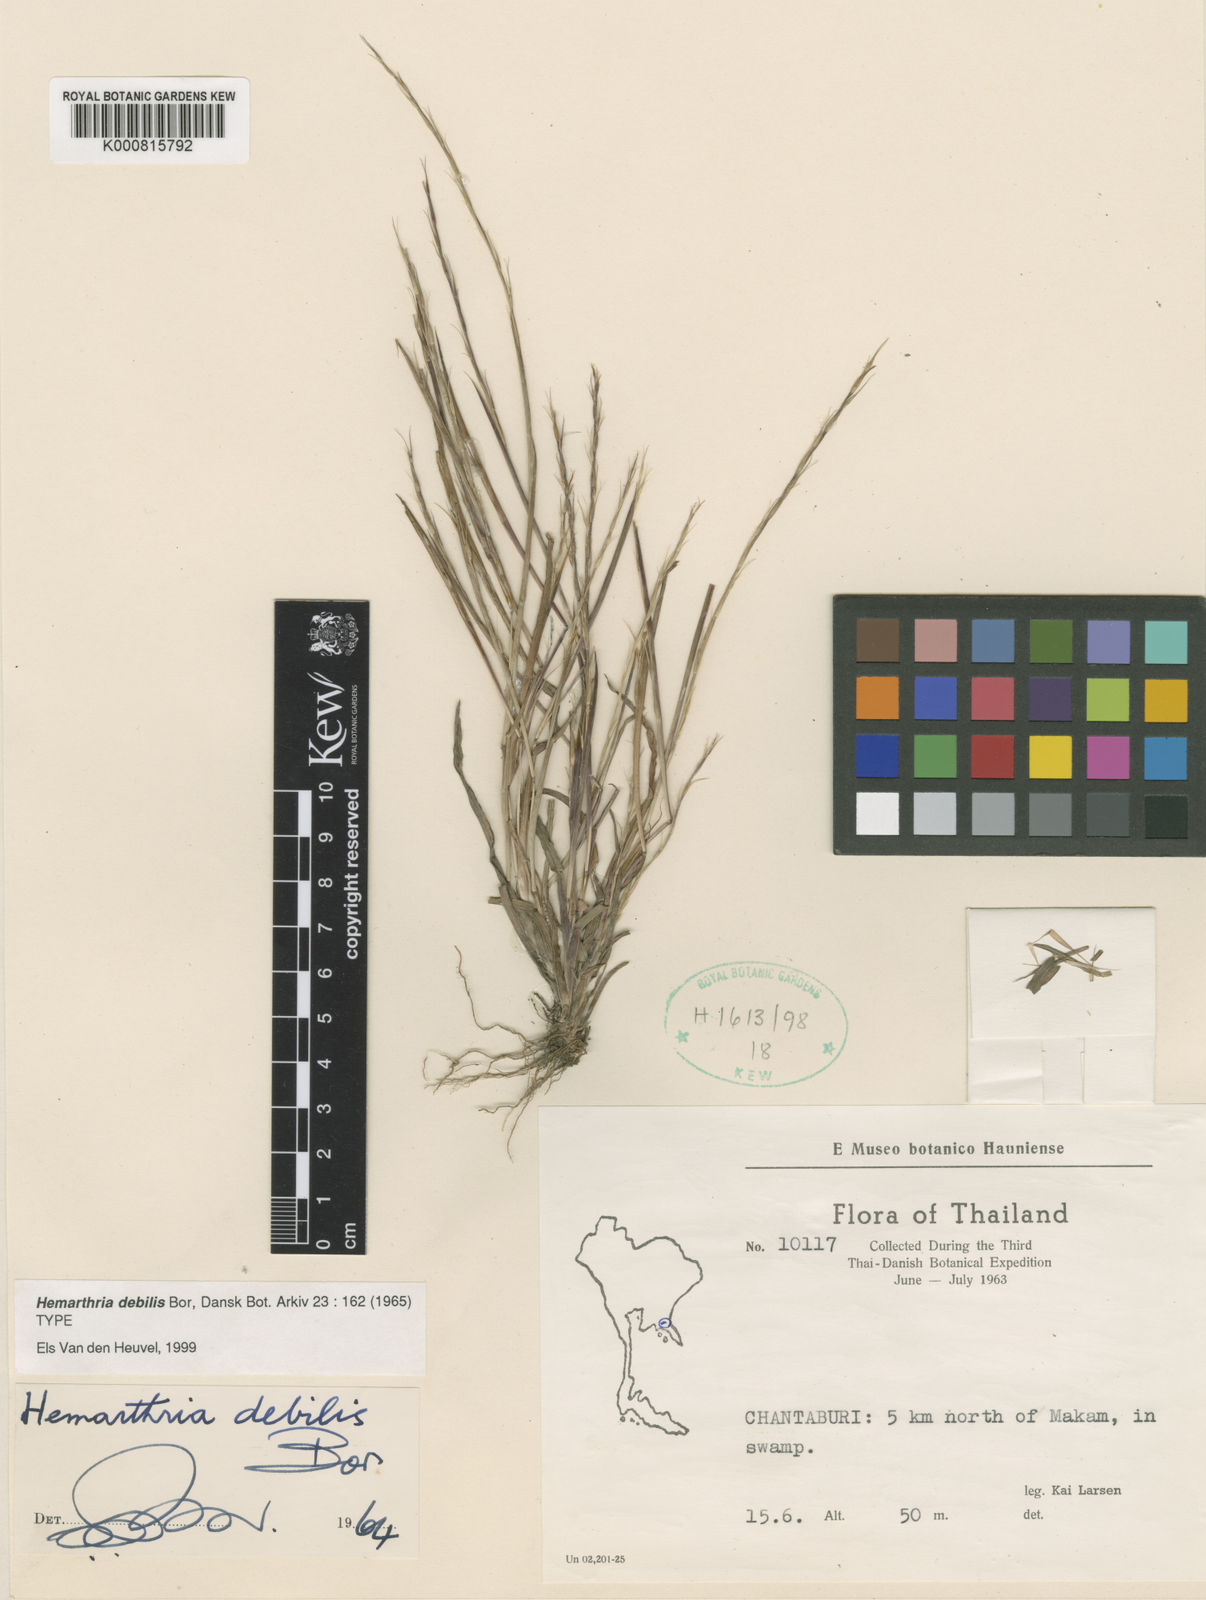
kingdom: Plantae
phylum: Tracheophyta
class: Liliopsida
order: Poales
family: Poaceae
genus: Hemarthria
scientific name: Hemarthria debilis
